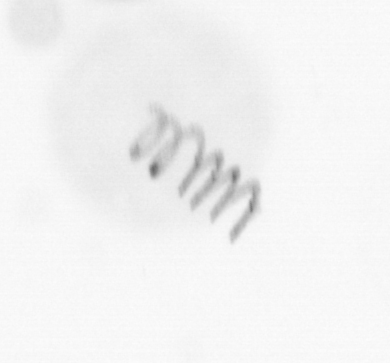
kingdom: Chromista
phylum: Ochrophyta
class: Bacillariophyceae
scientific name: Bacillariophyceae
